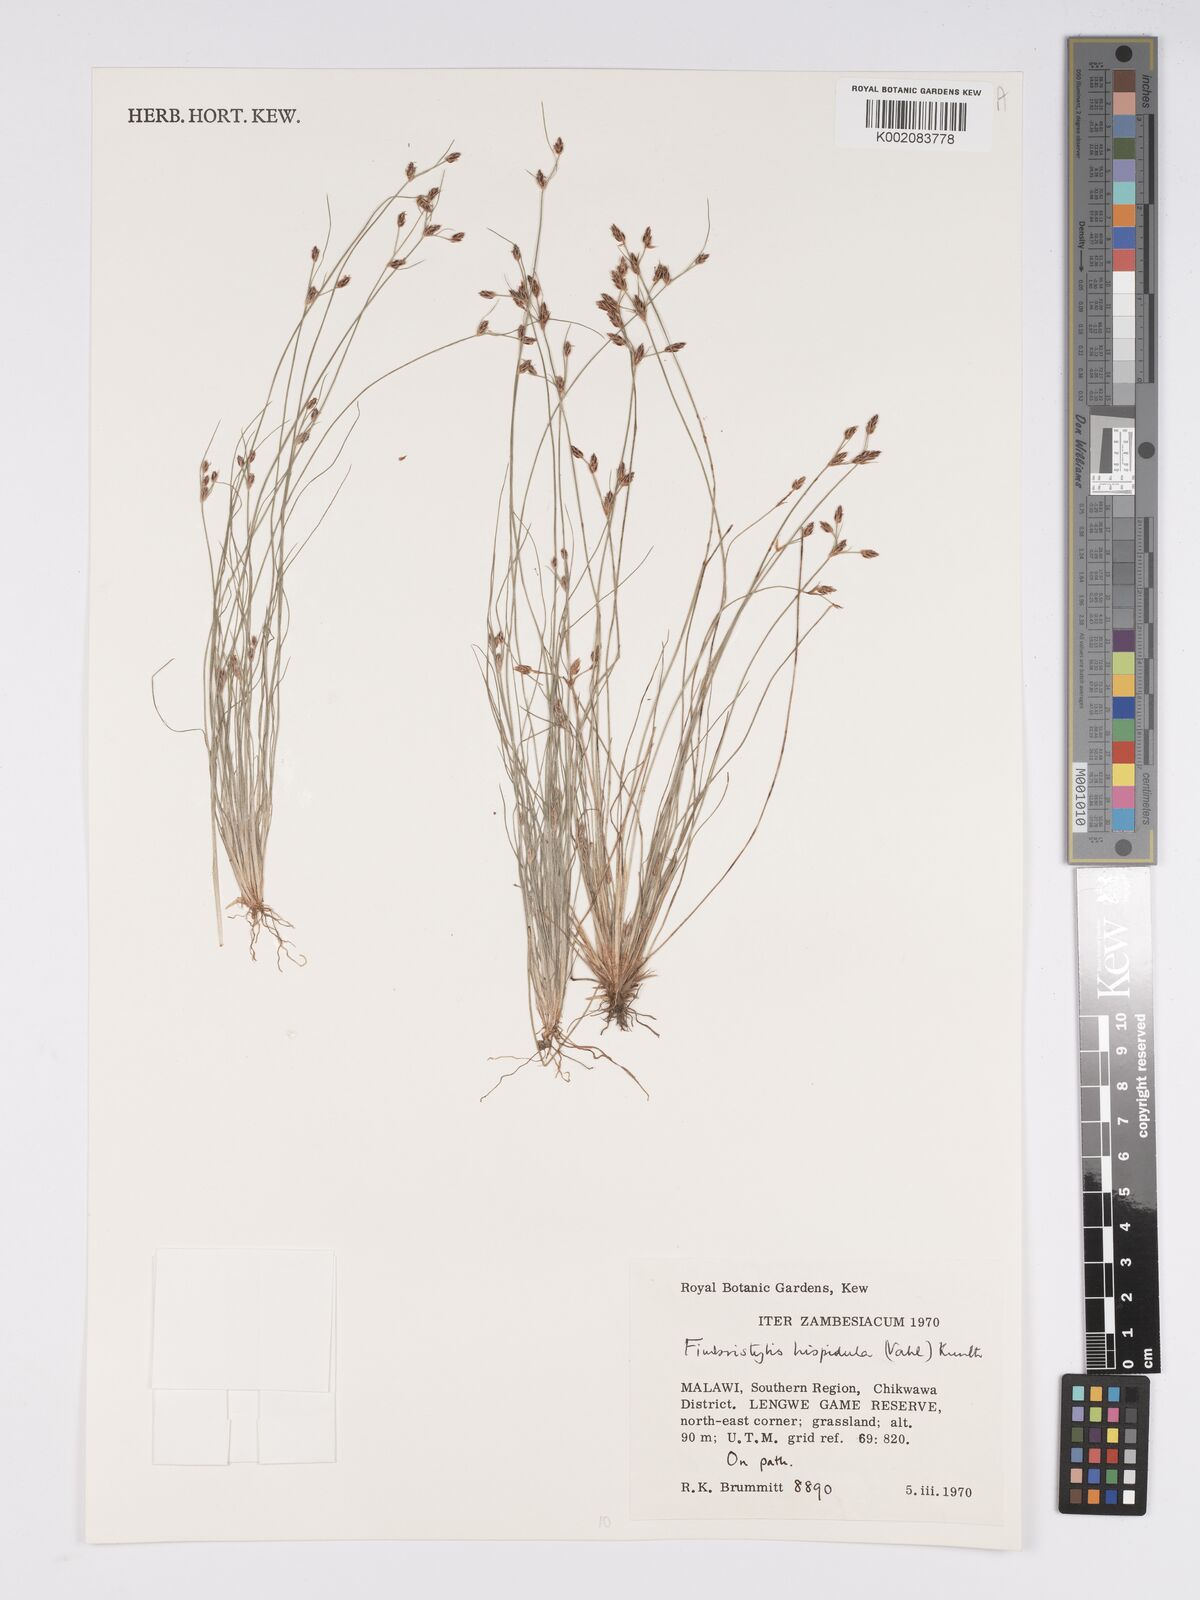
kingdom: Plantae
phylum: Tracheophyta
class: Liliopsida
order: Poales
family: Cyperaceae
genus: Bulbostylis
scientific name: Bulbostylis hispidula
